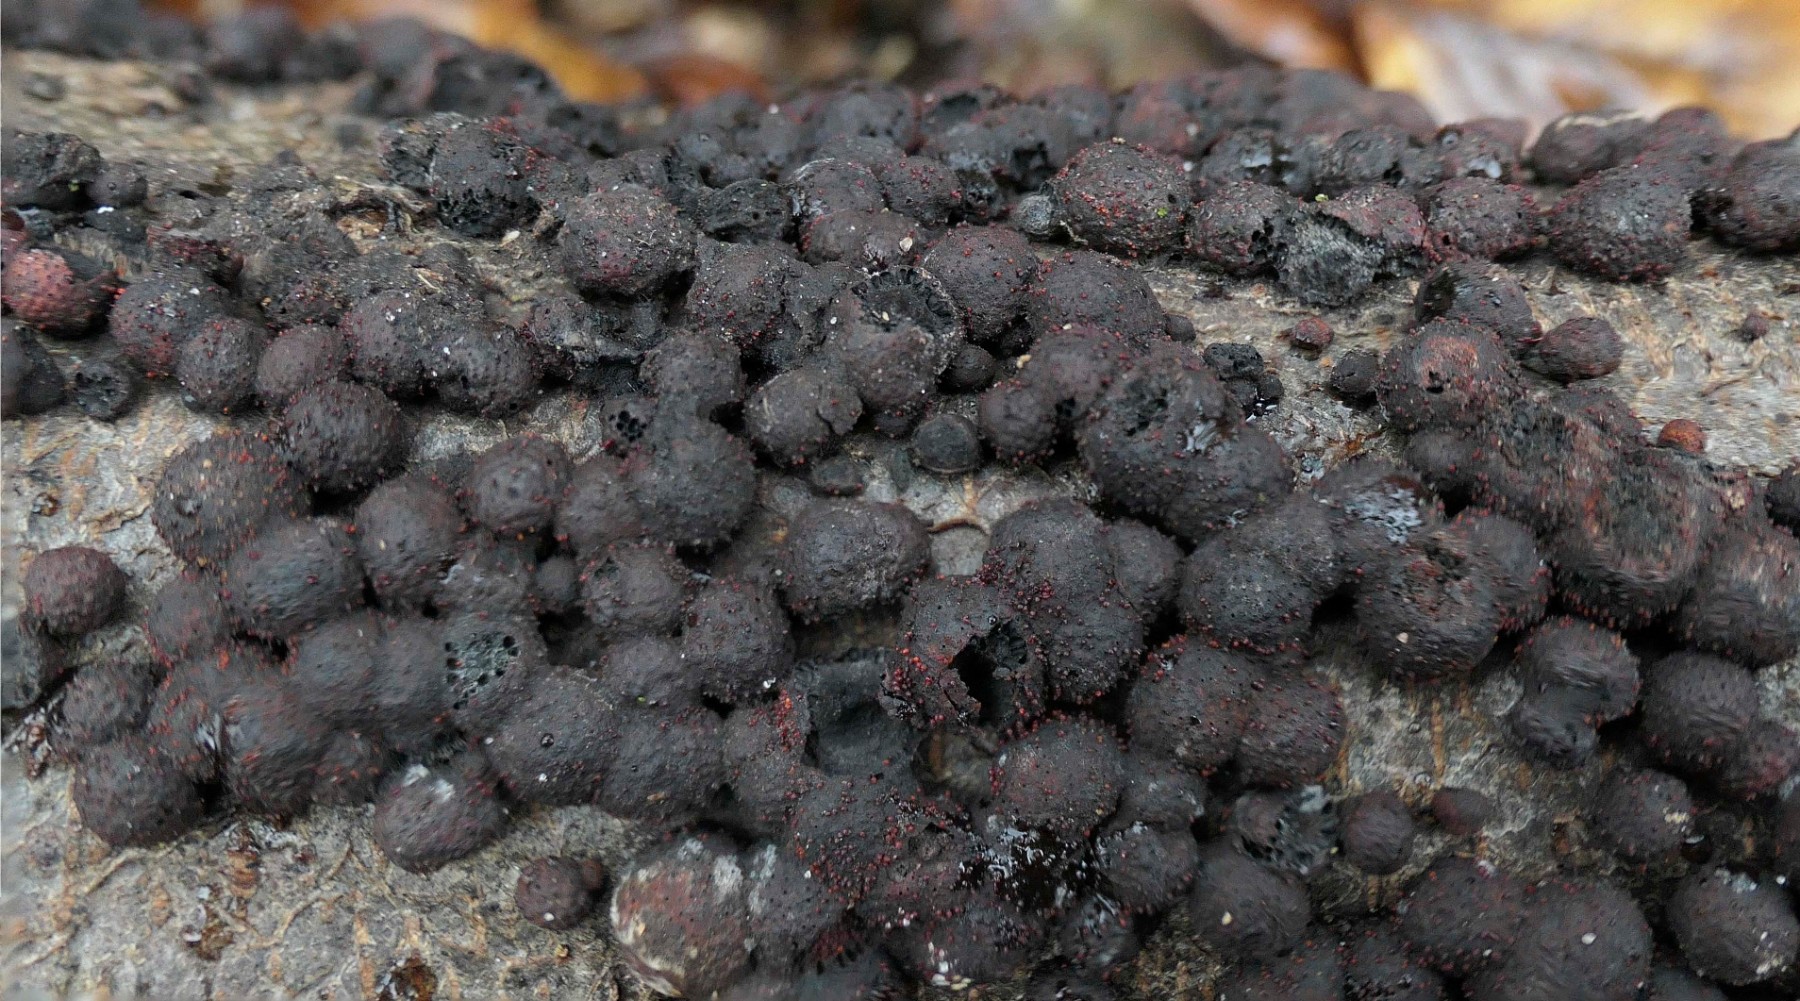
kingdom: Fungi
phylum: Ascomycota
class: Sordariomycetes
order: Hypocreales
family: Nectriaceae
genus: Cosmospora
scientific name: Cosmospora arxii
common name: kuljordbær-cinnobersvamp
